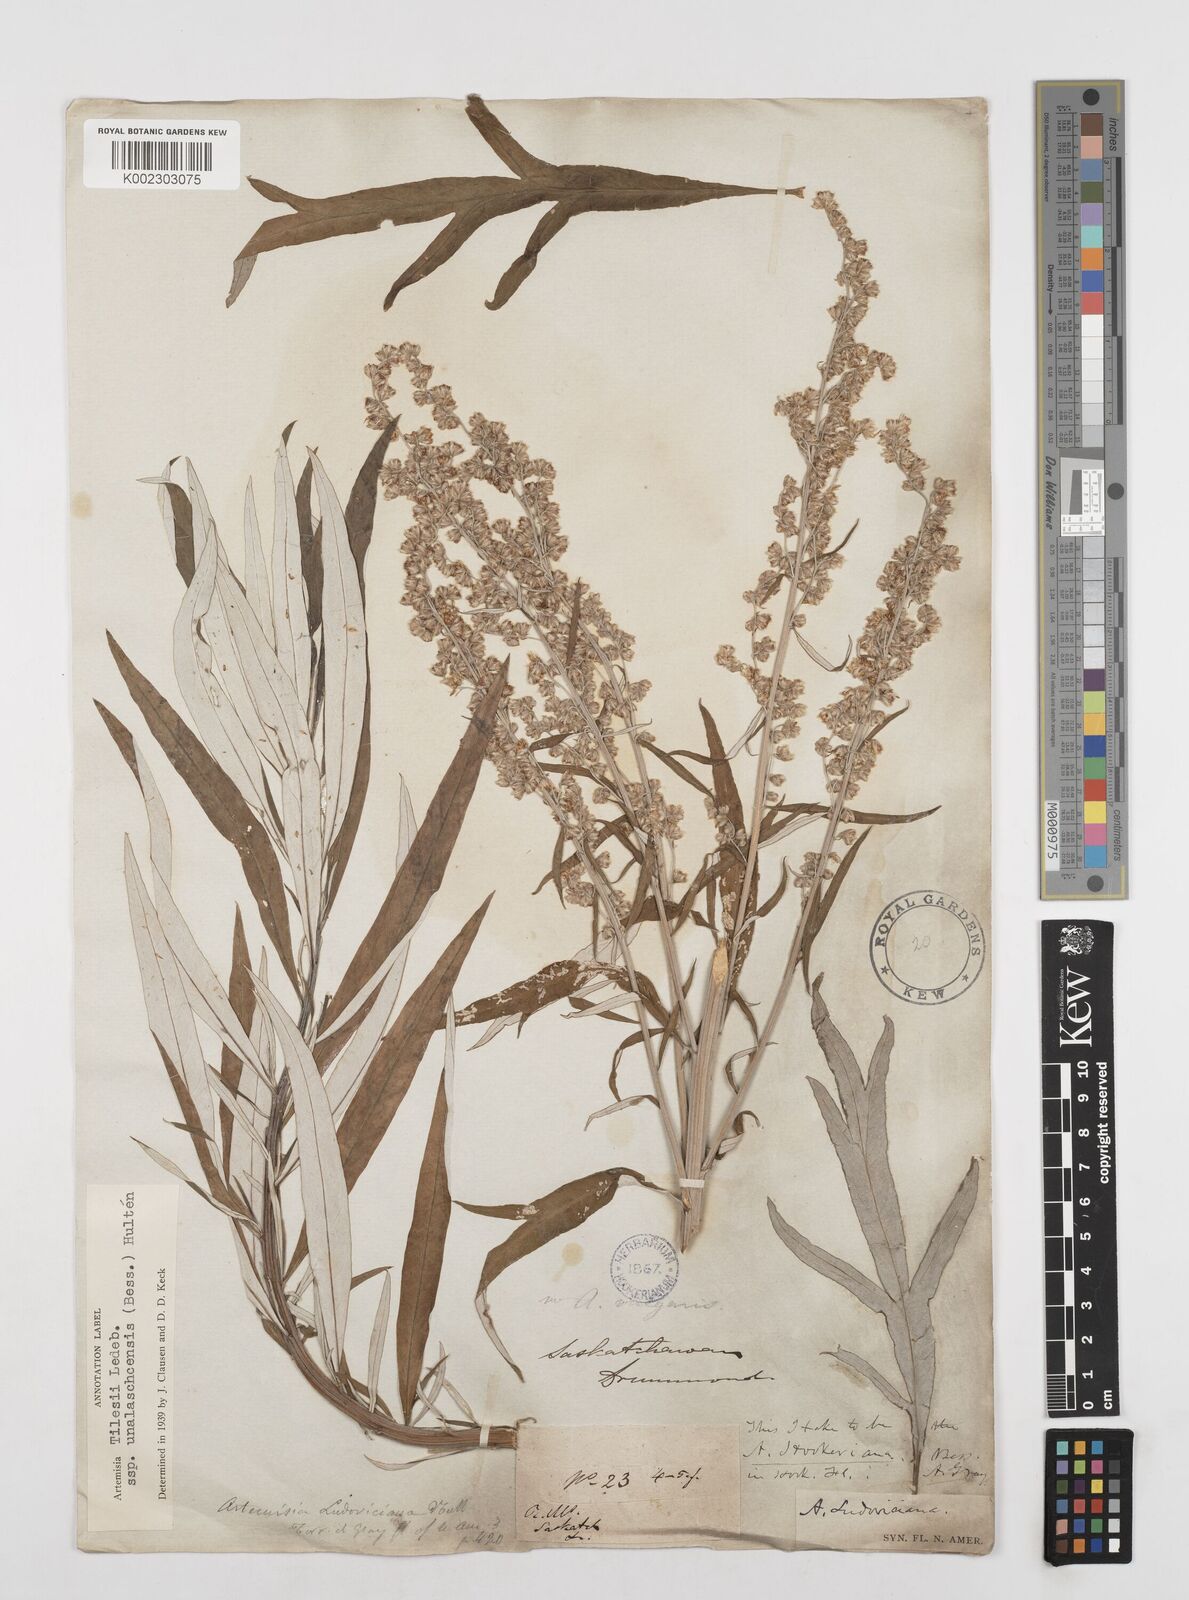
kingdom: Plantae
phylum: Tracheophyta
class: Magnoliopsida
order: Asterales
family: Asteraceae
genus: Artemisia
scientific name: Artemisia tilesii
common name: Aleutian mugwort
